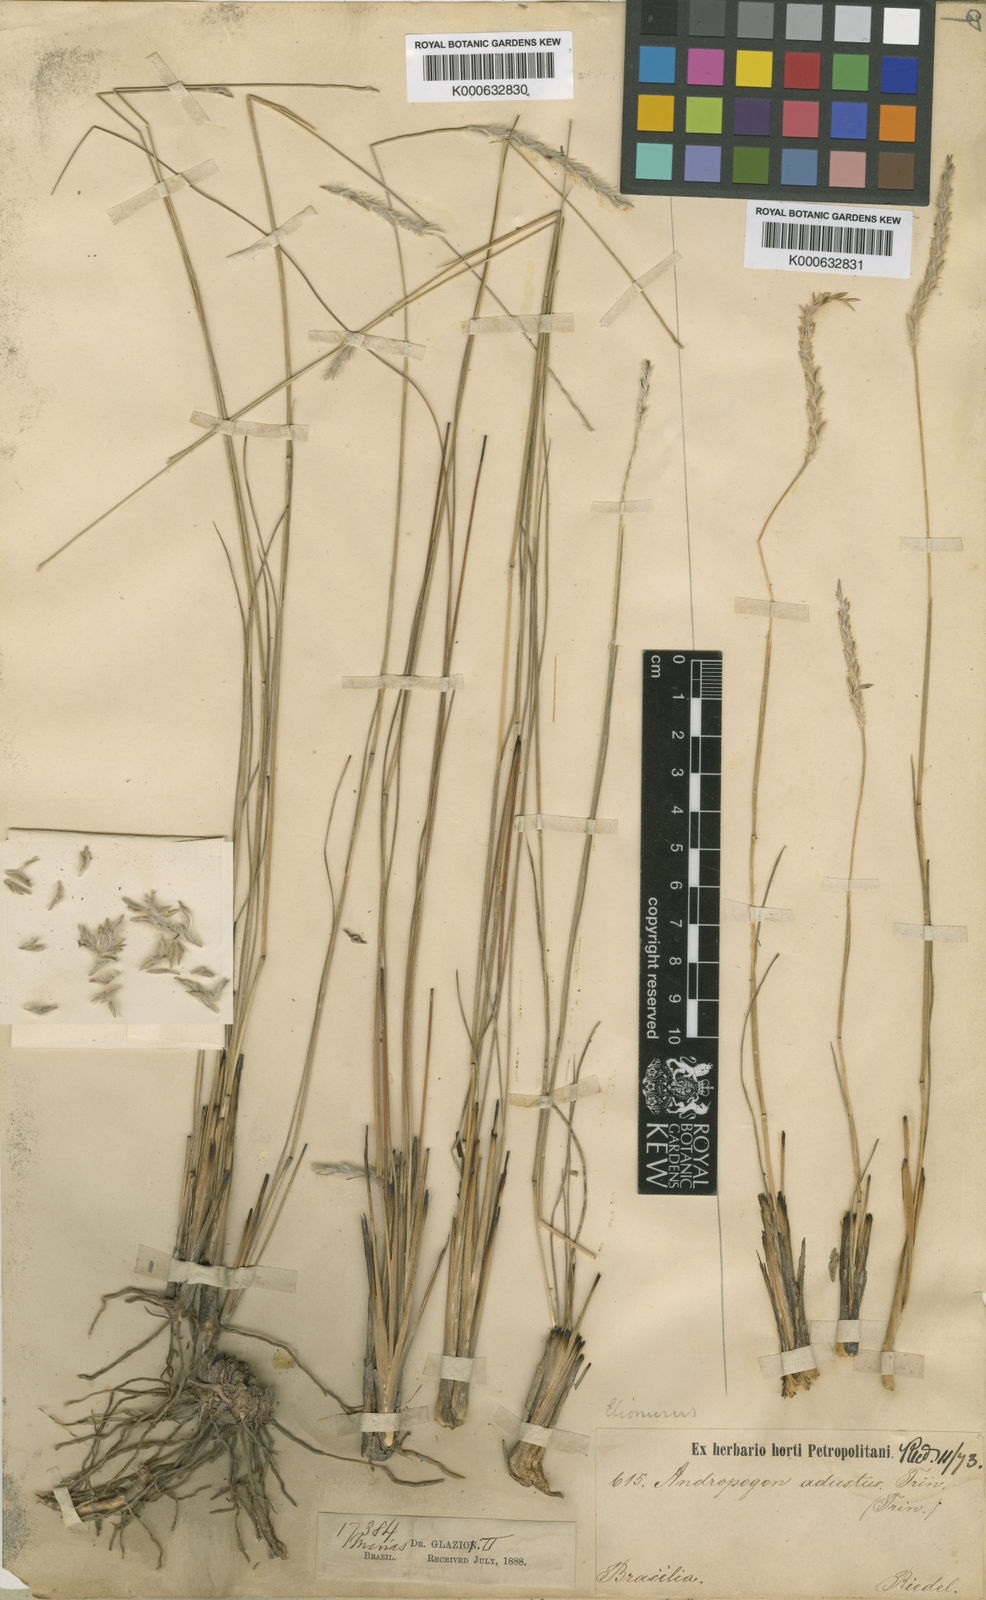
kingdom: Plantae
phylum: Tracheophyta
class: Liliopsida
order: Poales
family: Poaceae
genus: Elionurus
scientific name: Elionurus muticus
